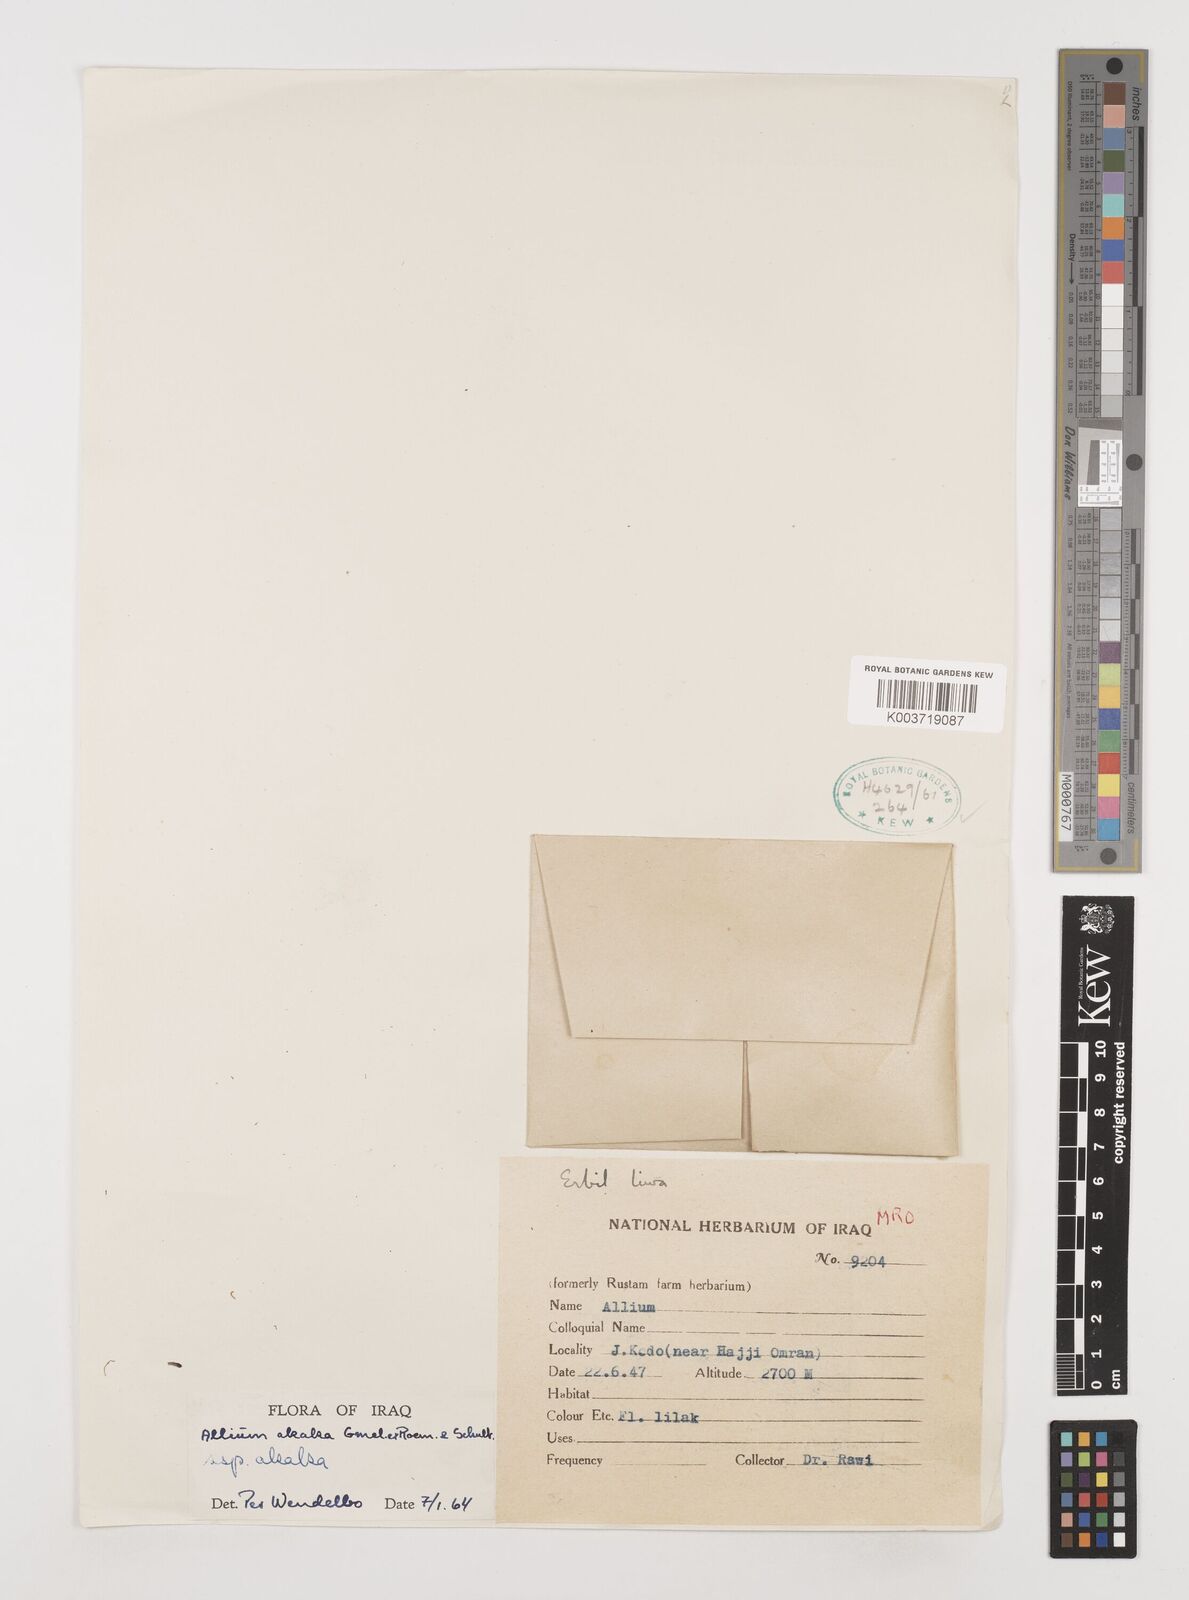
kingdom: Plantae
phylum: Tracheophyta
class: Liliopsida
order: Asparagales
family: Amaryllidaceae
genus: Allium
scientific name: Allium akaka
